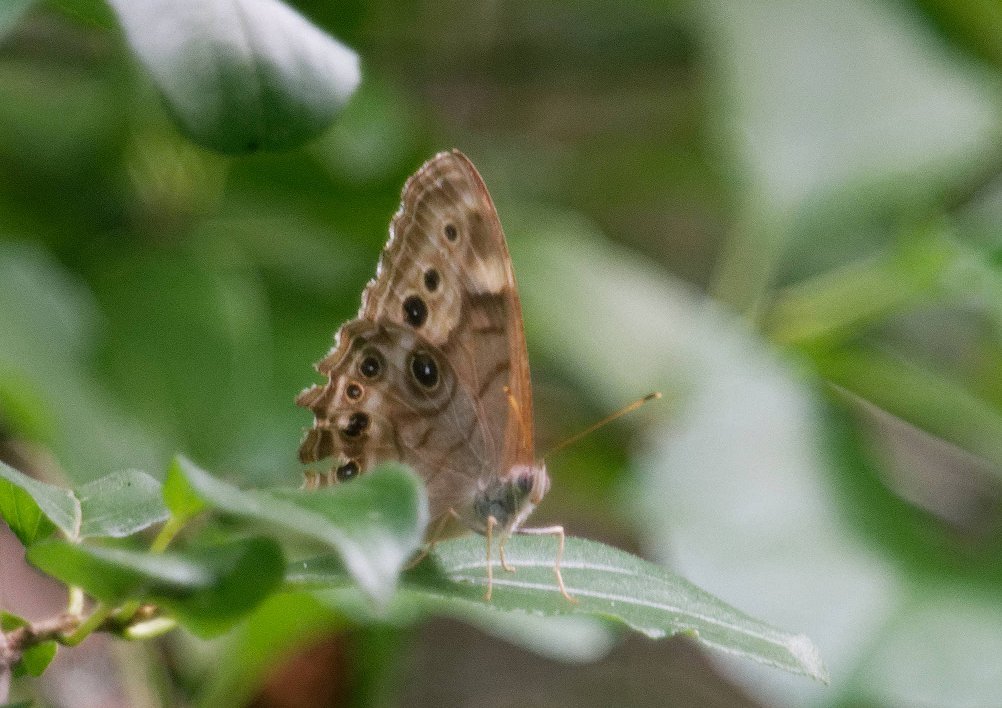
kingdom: Animalia
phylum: Arthropoda
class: Insecta
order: Lepidoptera
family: Nymphalidae
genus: Lethe
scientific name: Lethe anthedon
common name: Northern Pearly-Eye
